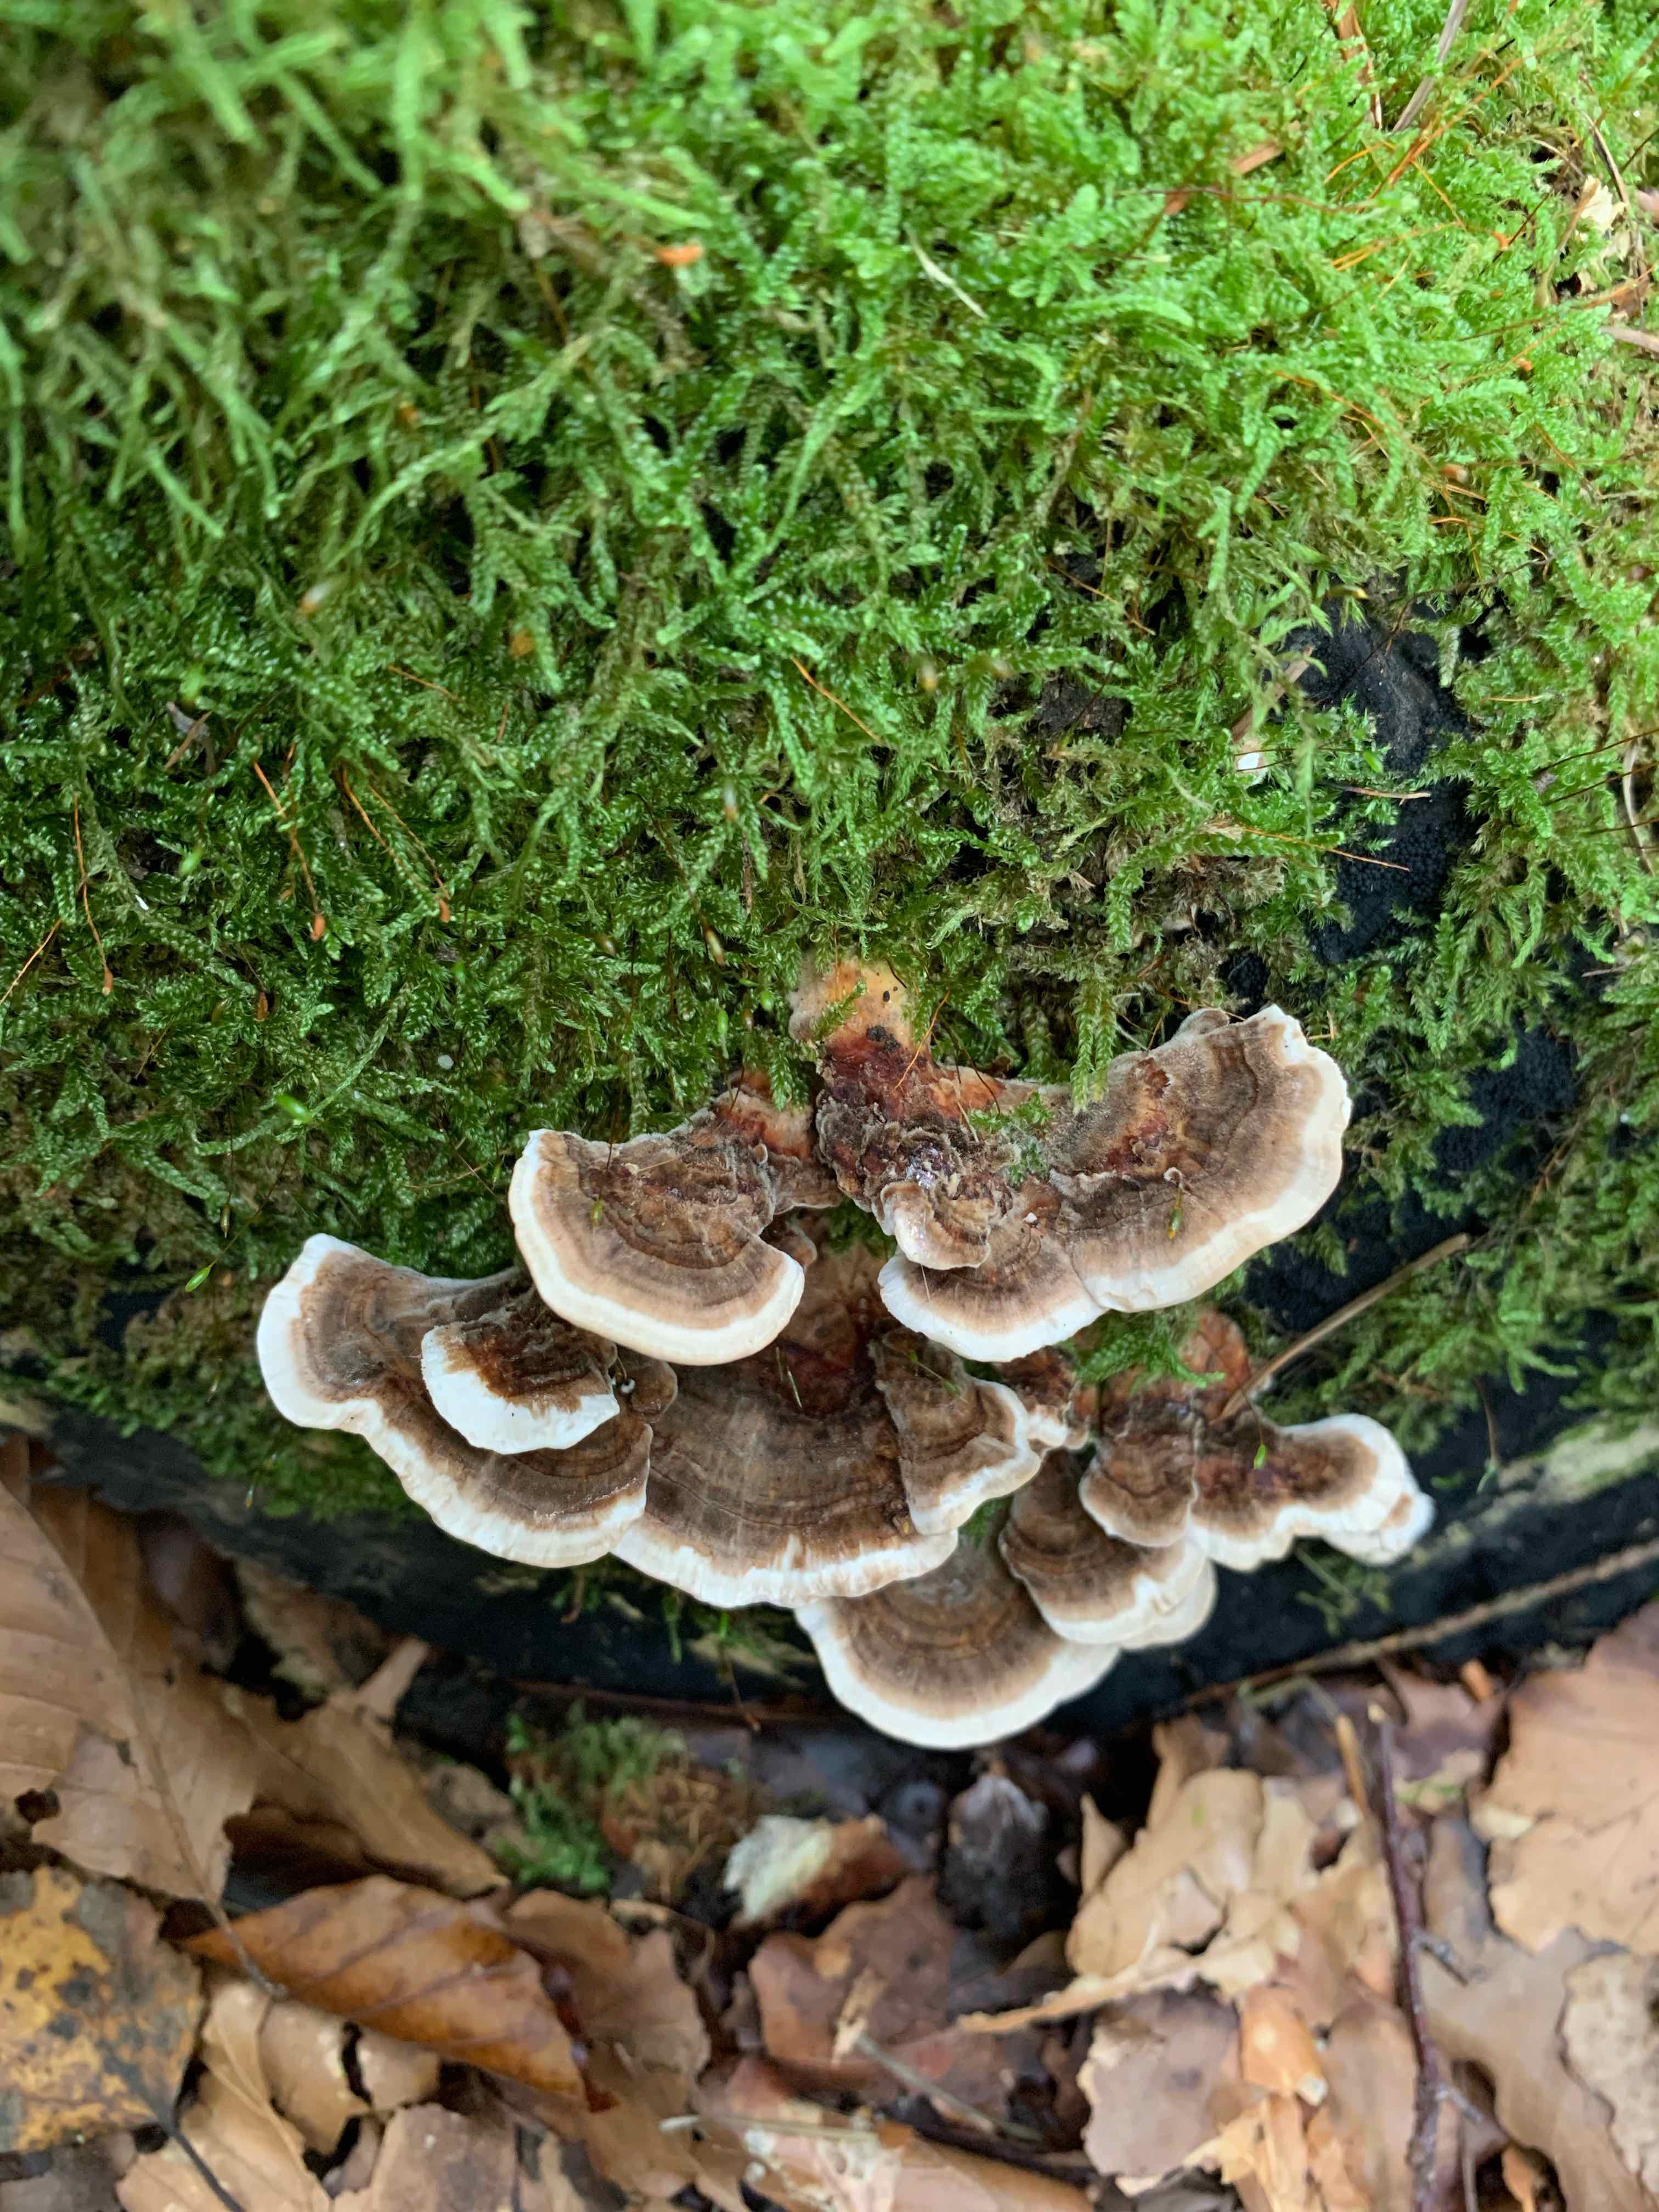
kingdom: Fungi
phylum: Basidiomycota
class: Agaricomycetes
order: Polyporales
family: Polyporaceae
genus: Trametes
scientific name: Trametes versicolor
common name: broget læderporesvamp
